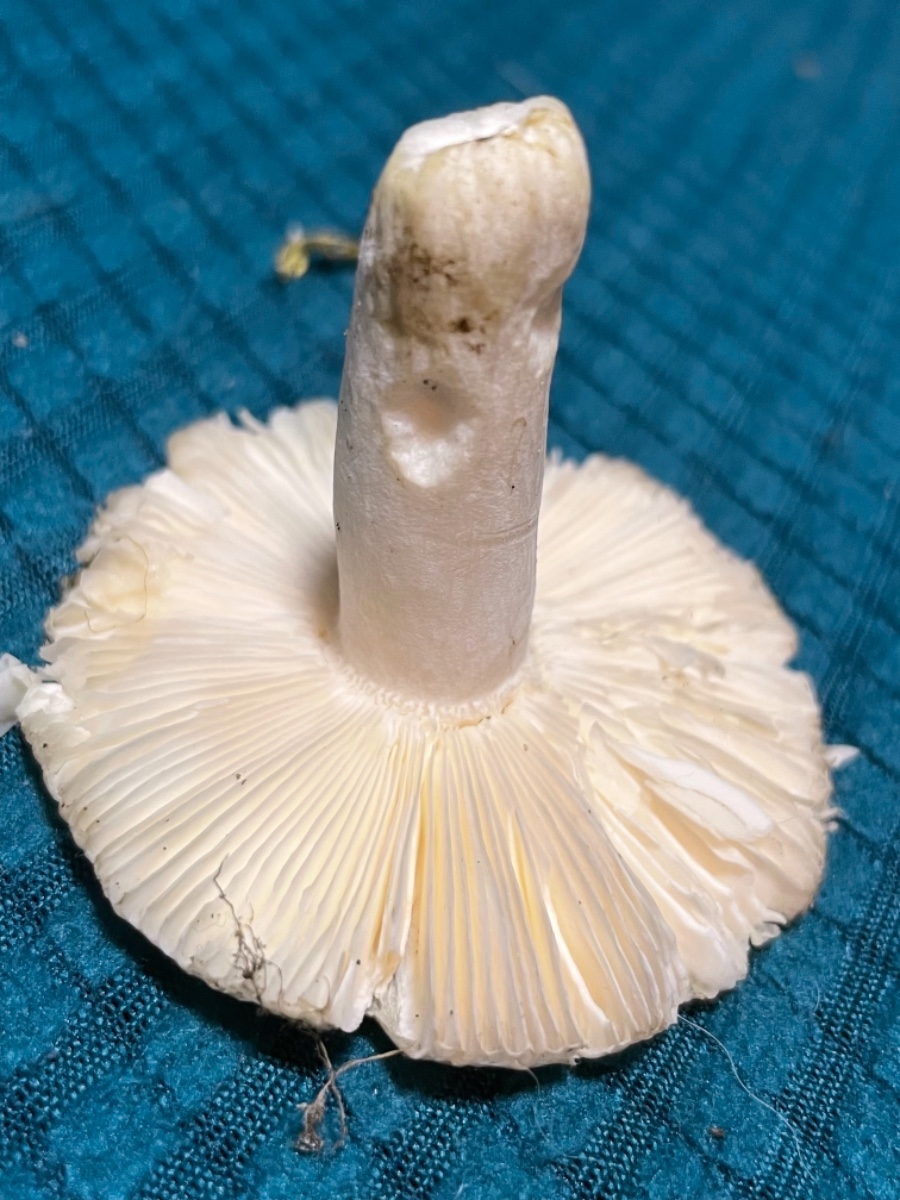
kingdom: Fungi
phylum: Basidiomycota
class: Agaricomycetes
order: Russulales
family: Russulaceae
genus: Russula
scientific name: Russula
